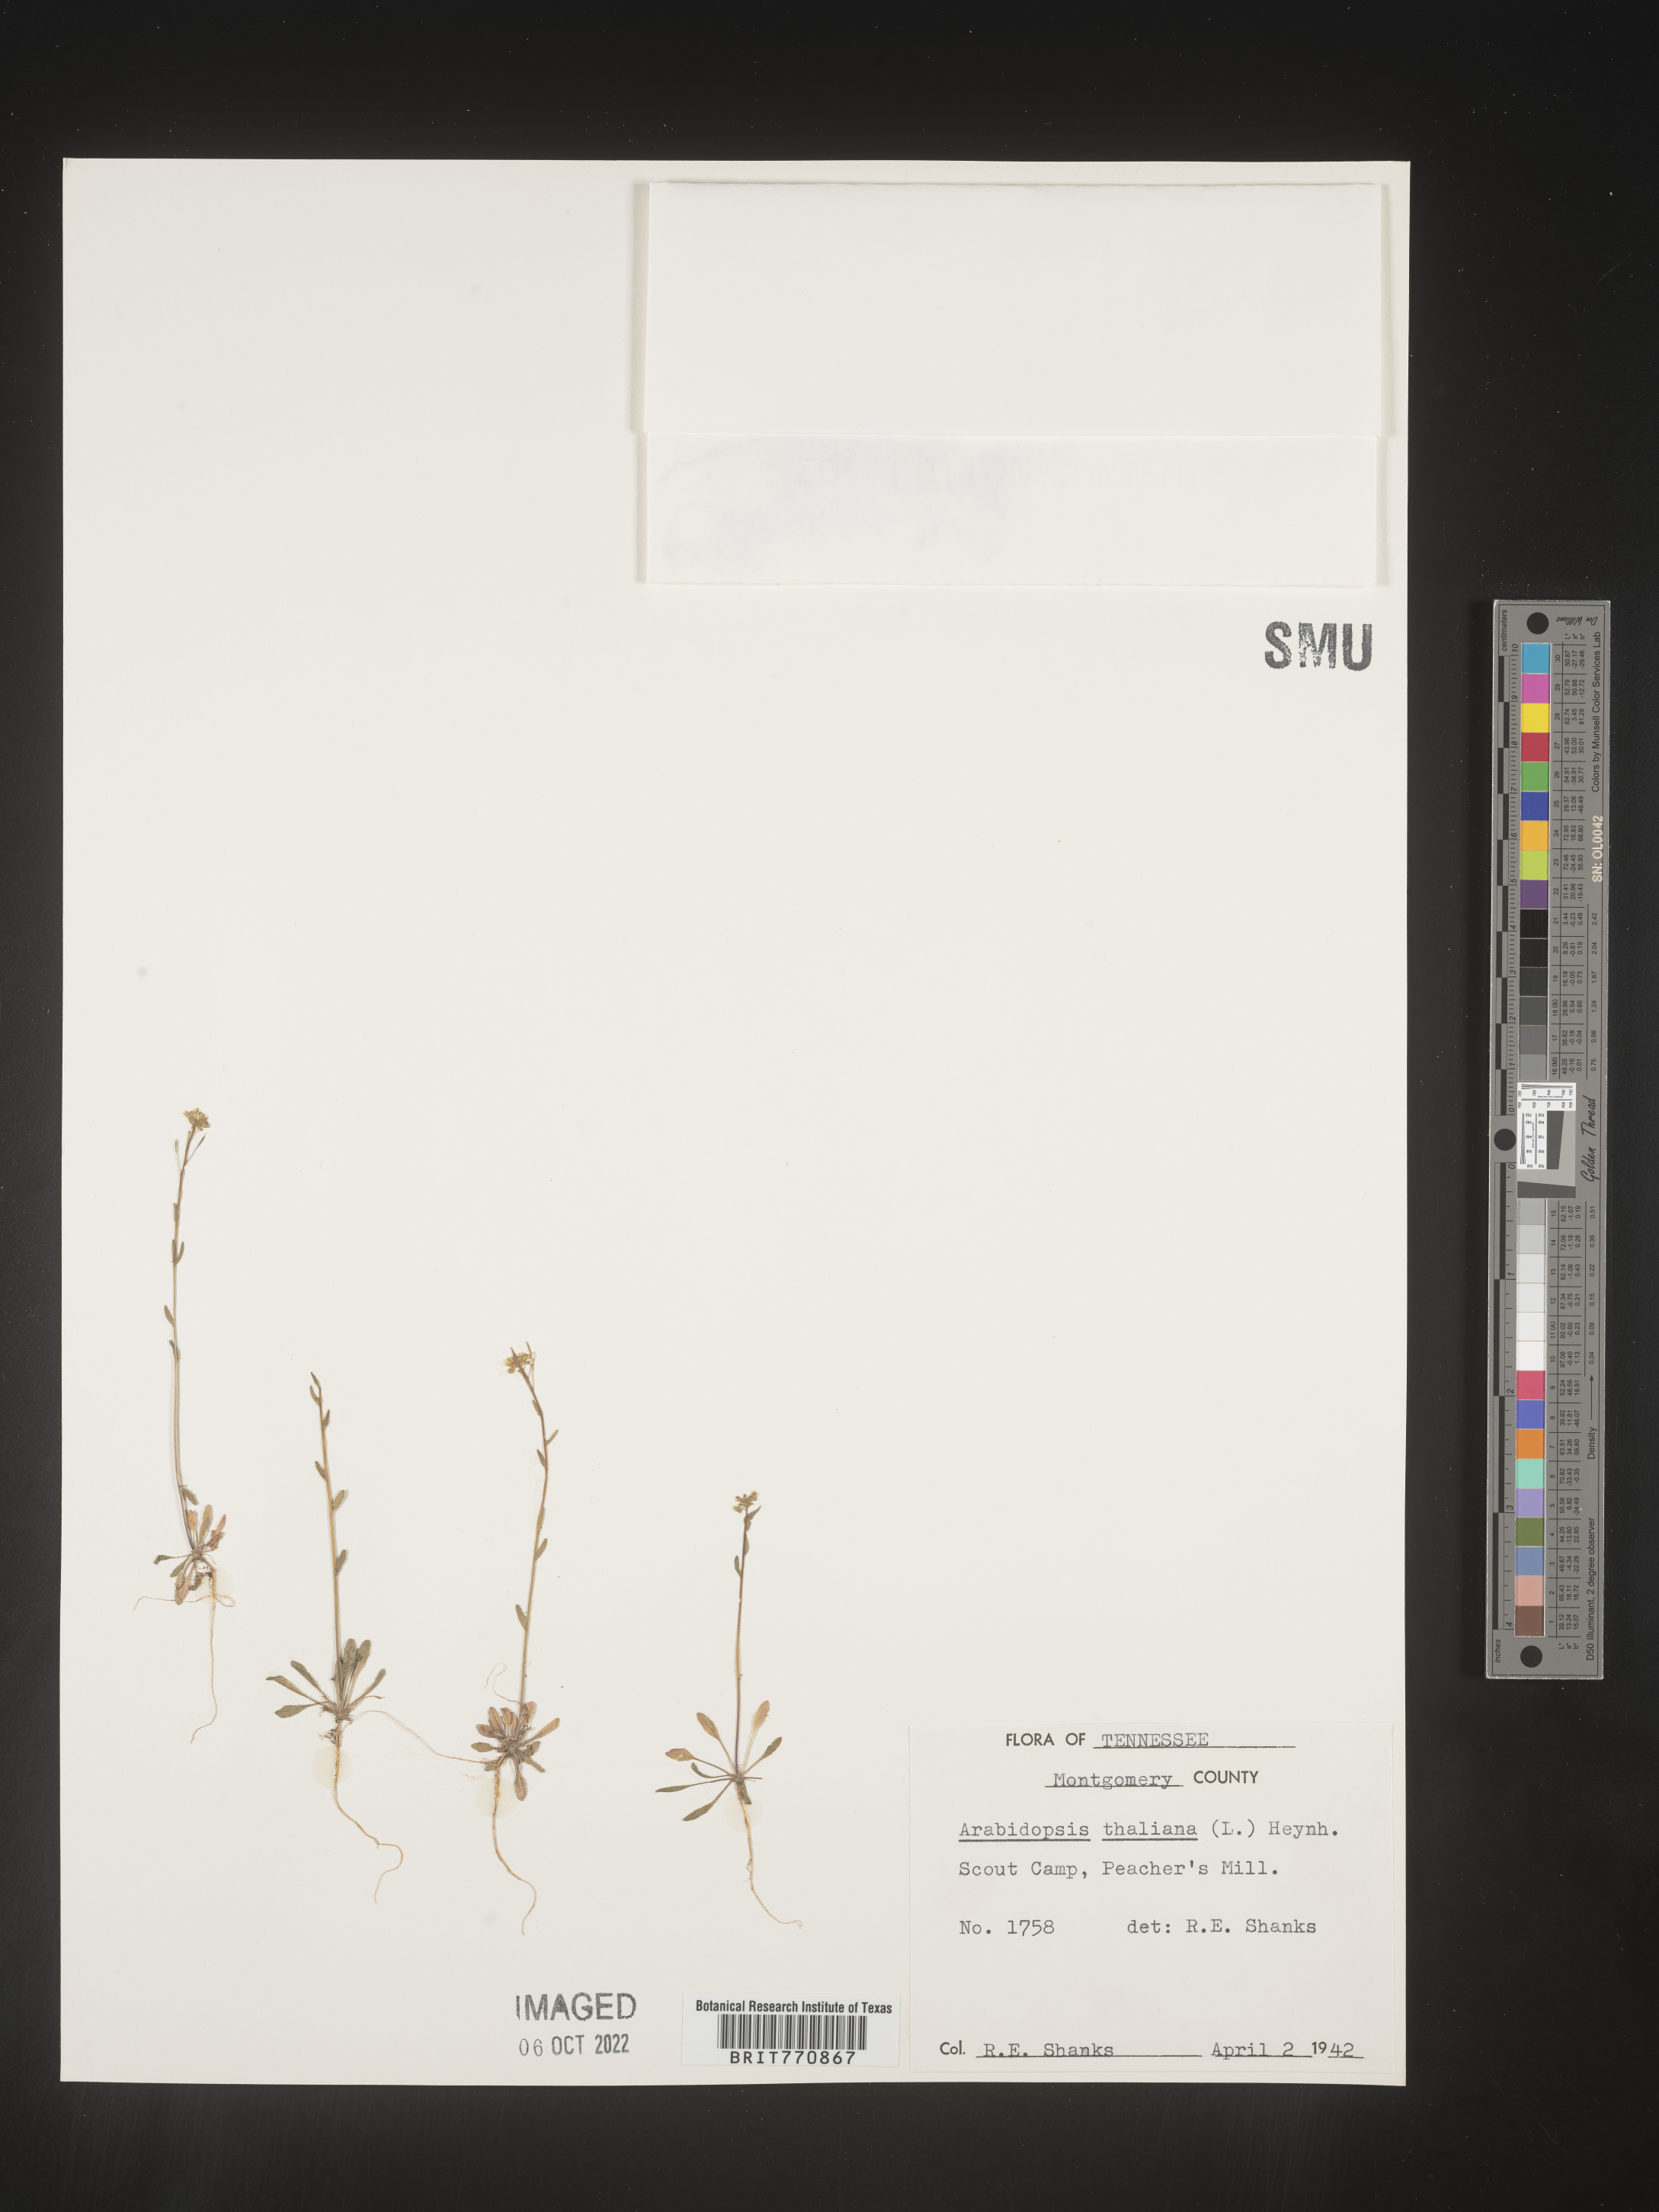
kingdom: Plantae
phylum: Tracheophyta
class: Magnoliopsida
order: Brassicales
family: Brassicaceae
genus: Arabidopsis
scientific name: Arabidopsis thaliana
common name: Thale cress
